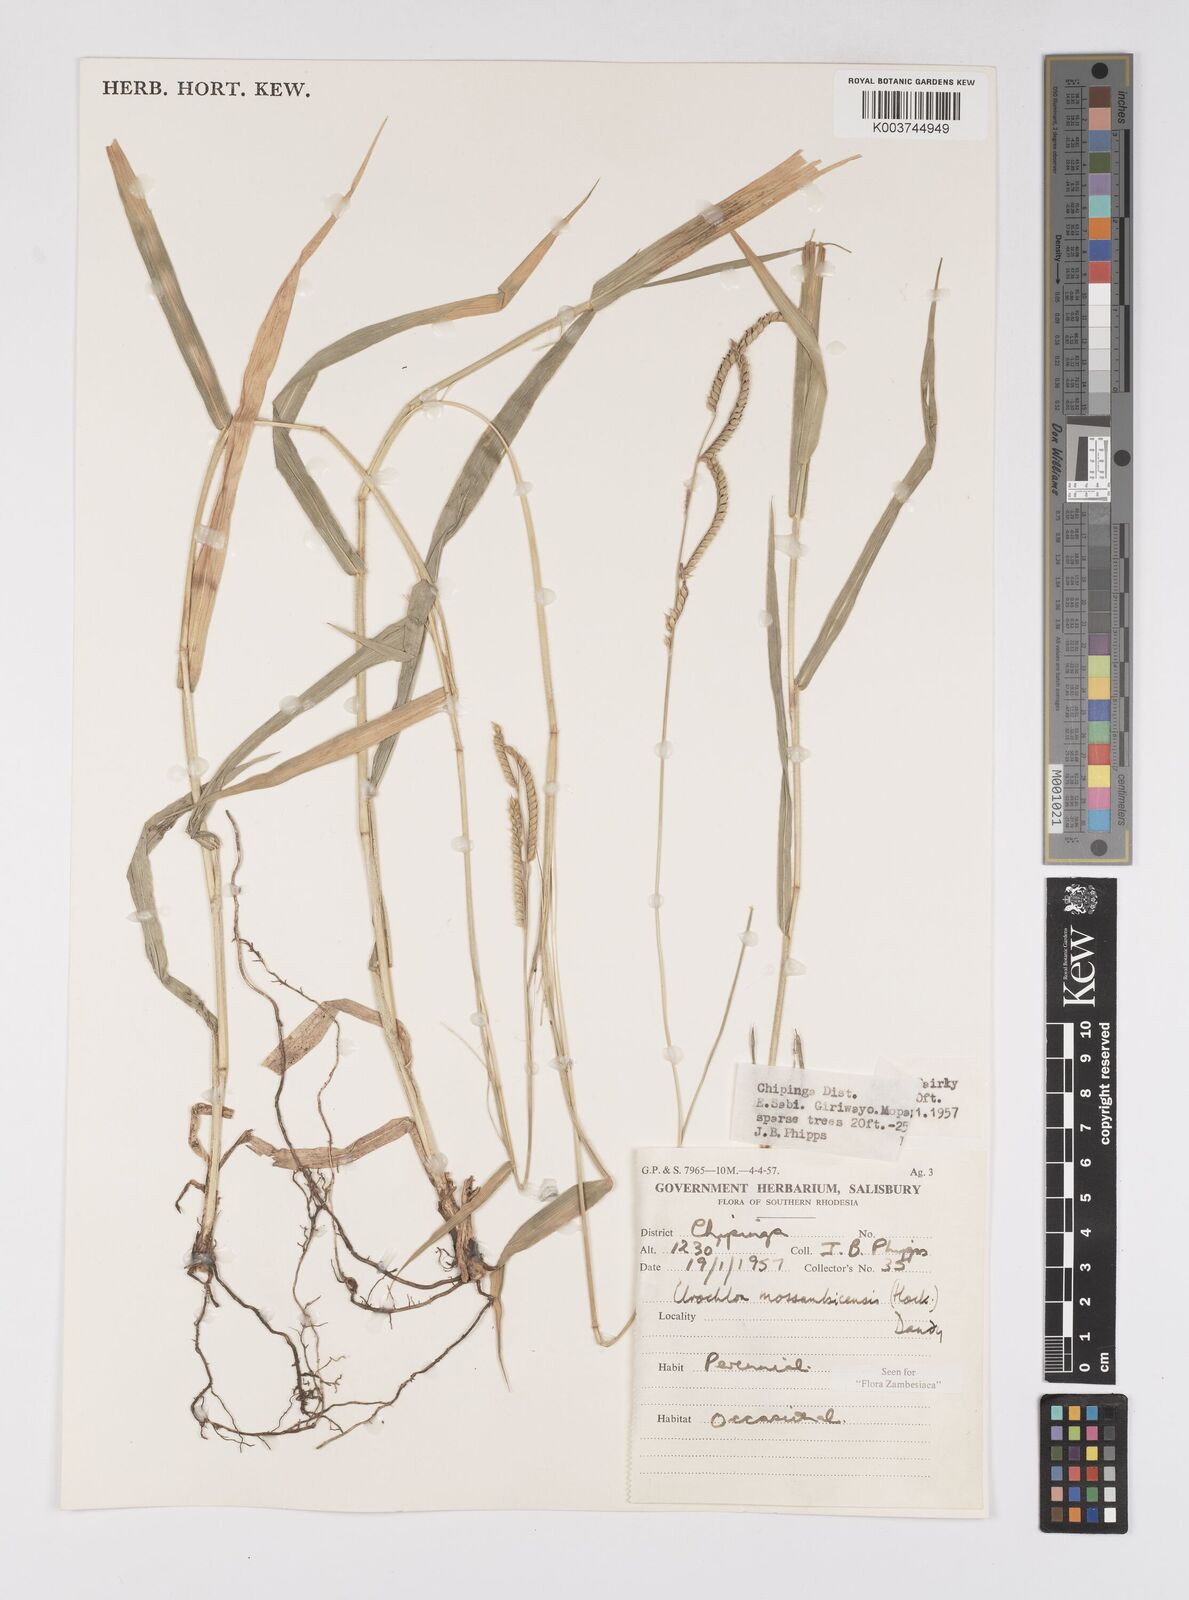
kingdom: Plantae
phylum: Tracheophyta
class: Liliopsida
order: Poales
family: Poaceae
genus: Urochloa
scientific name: Urochloa trichopus
